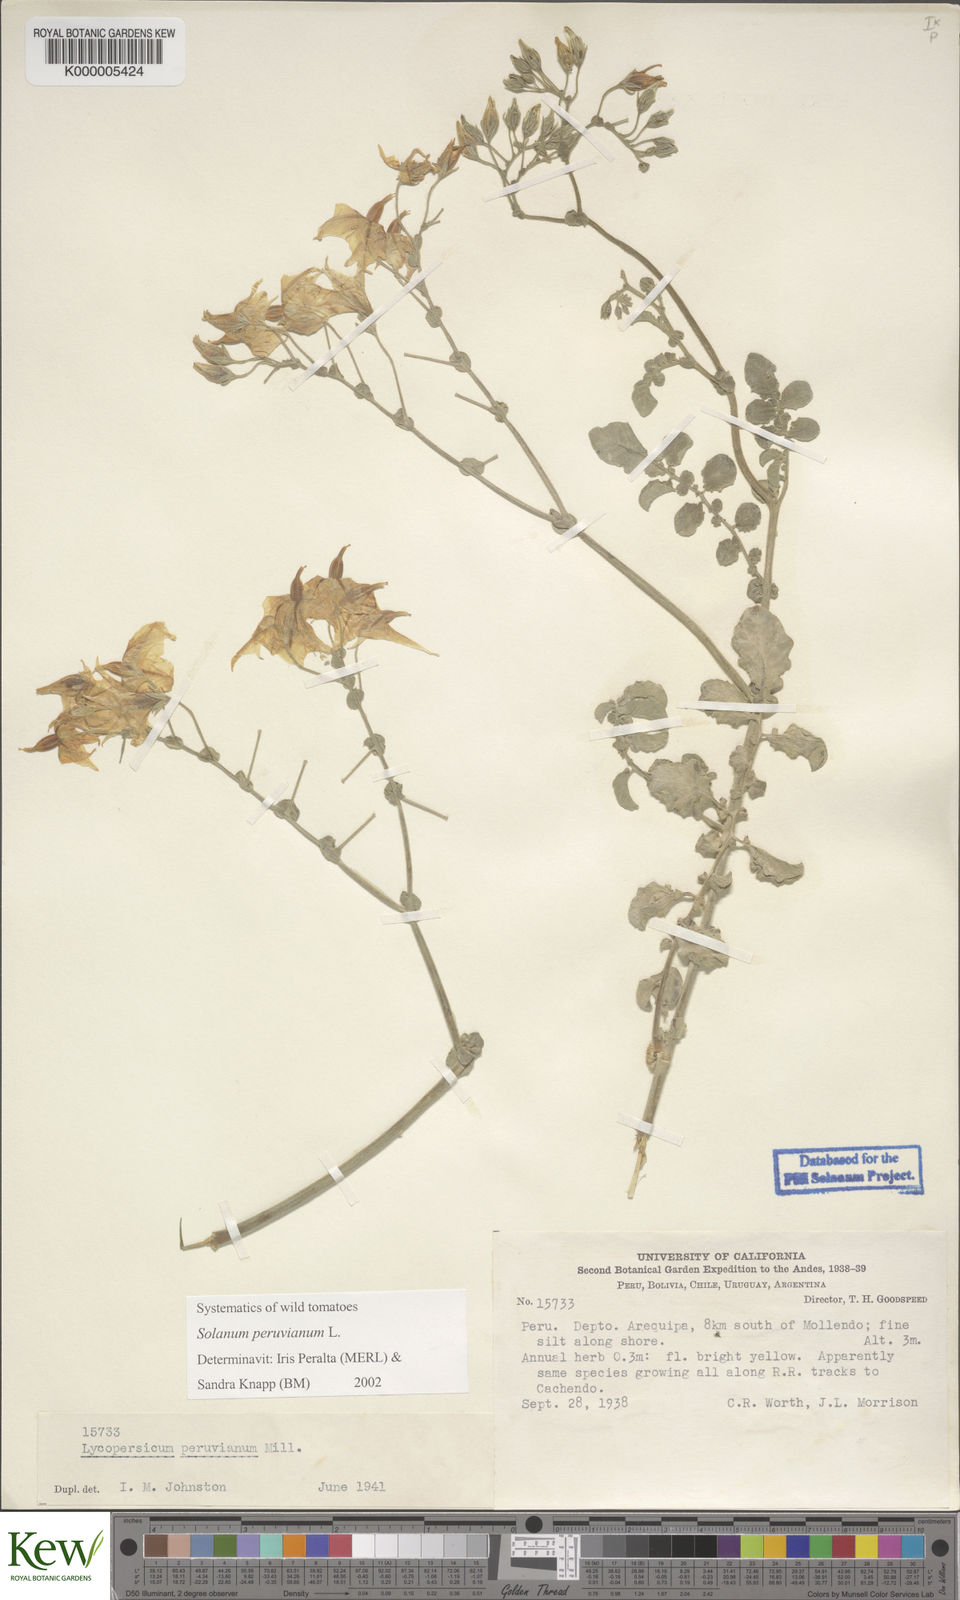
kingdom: Plantae
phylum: Tracheophyta
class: Magnoliopsida
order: Solanales
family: Solanaceae
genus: Solanum
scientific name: Solanum peruvianum
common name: Peruvian nightshade
